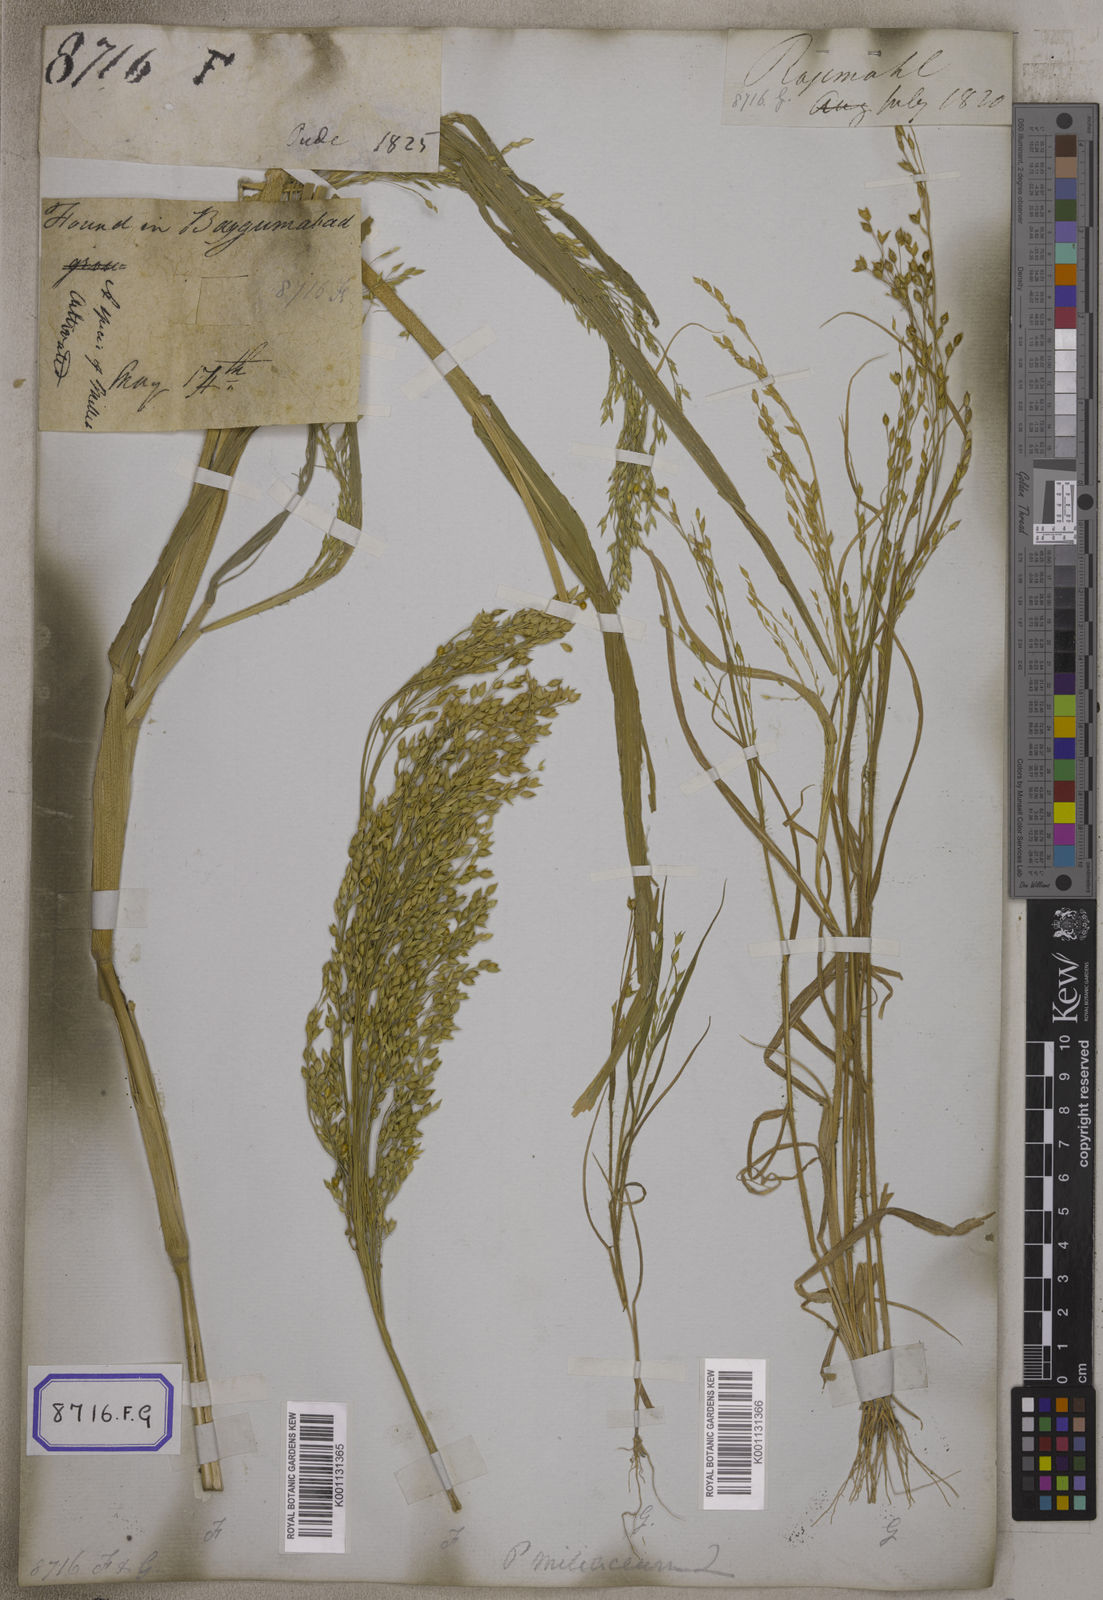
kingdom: Plantae
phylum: Tracheophyta
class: Liliopsida
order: Poales
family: Poaceae
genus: Panicum
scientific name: Panicum miliaceum
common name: Common millet
